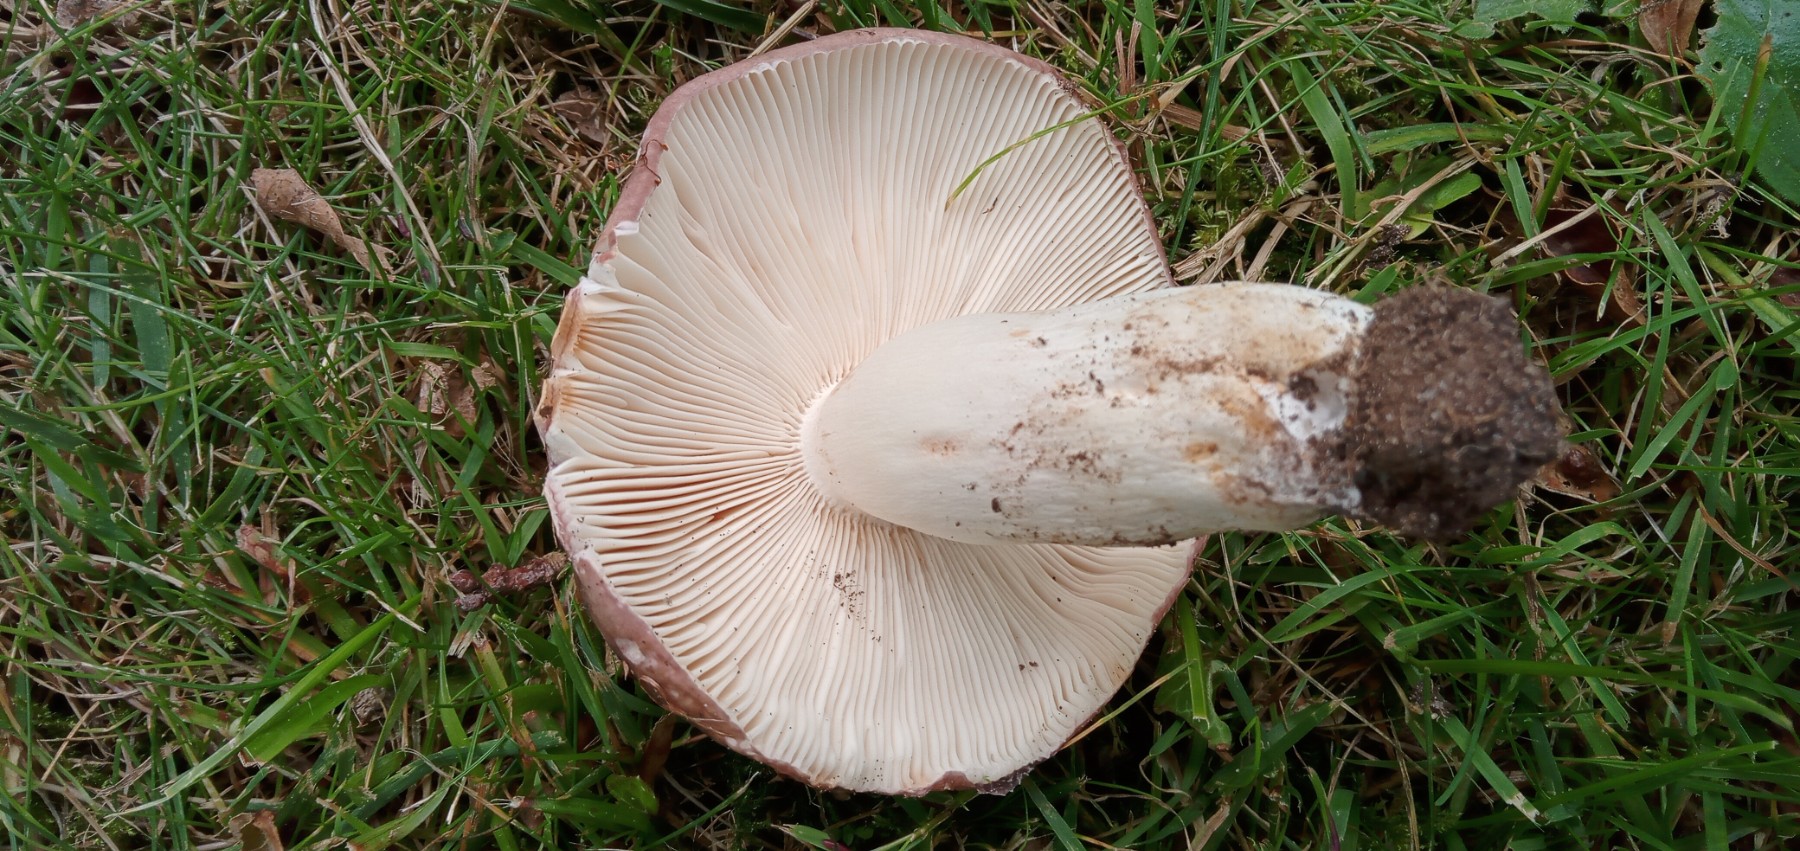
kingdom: Fungi
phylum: Basidiomycota
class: Agaricomycetes
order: Russulales
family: Russulaceae
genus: Russula
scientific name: Russula cyanoxantha
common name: broget skørhat
